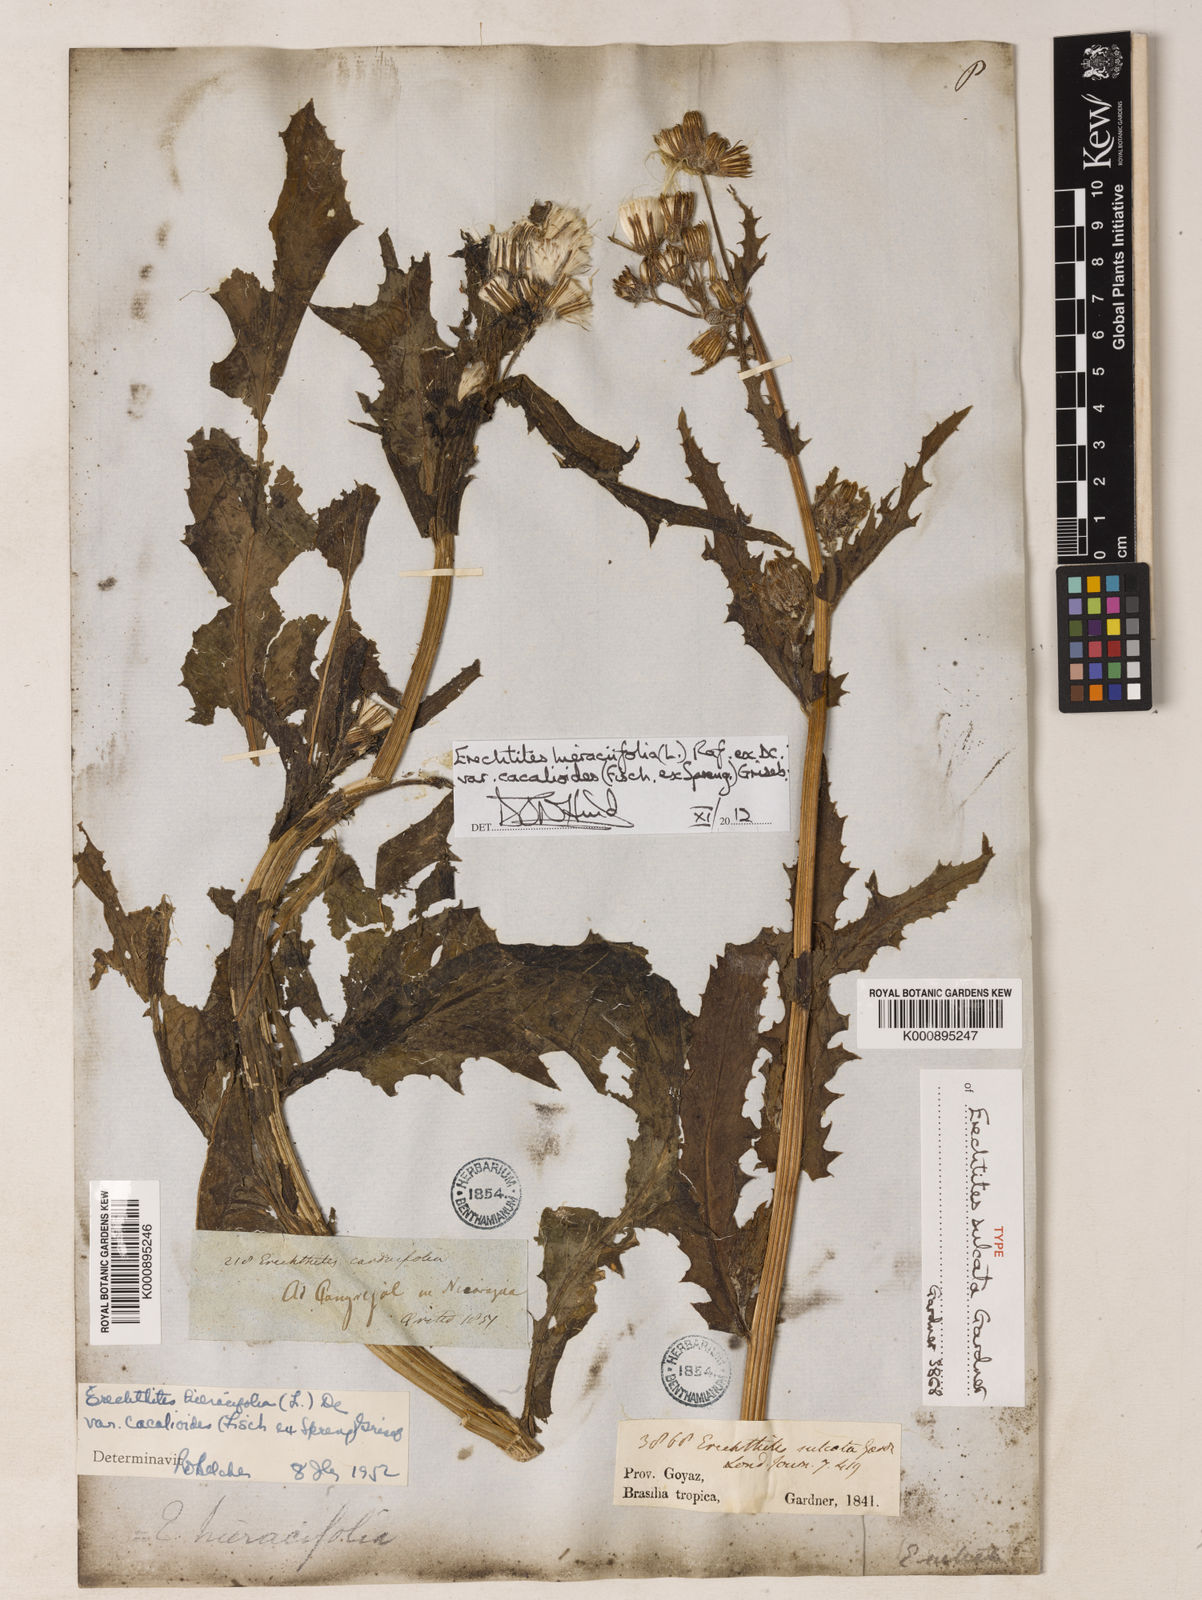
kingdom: Plantae
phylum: Tracheophyta
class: Magnoliopsida
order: Asterales
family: Asteraceae
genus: Erechtites
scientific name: Erechtites hieraciifolius
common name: American burnweed
